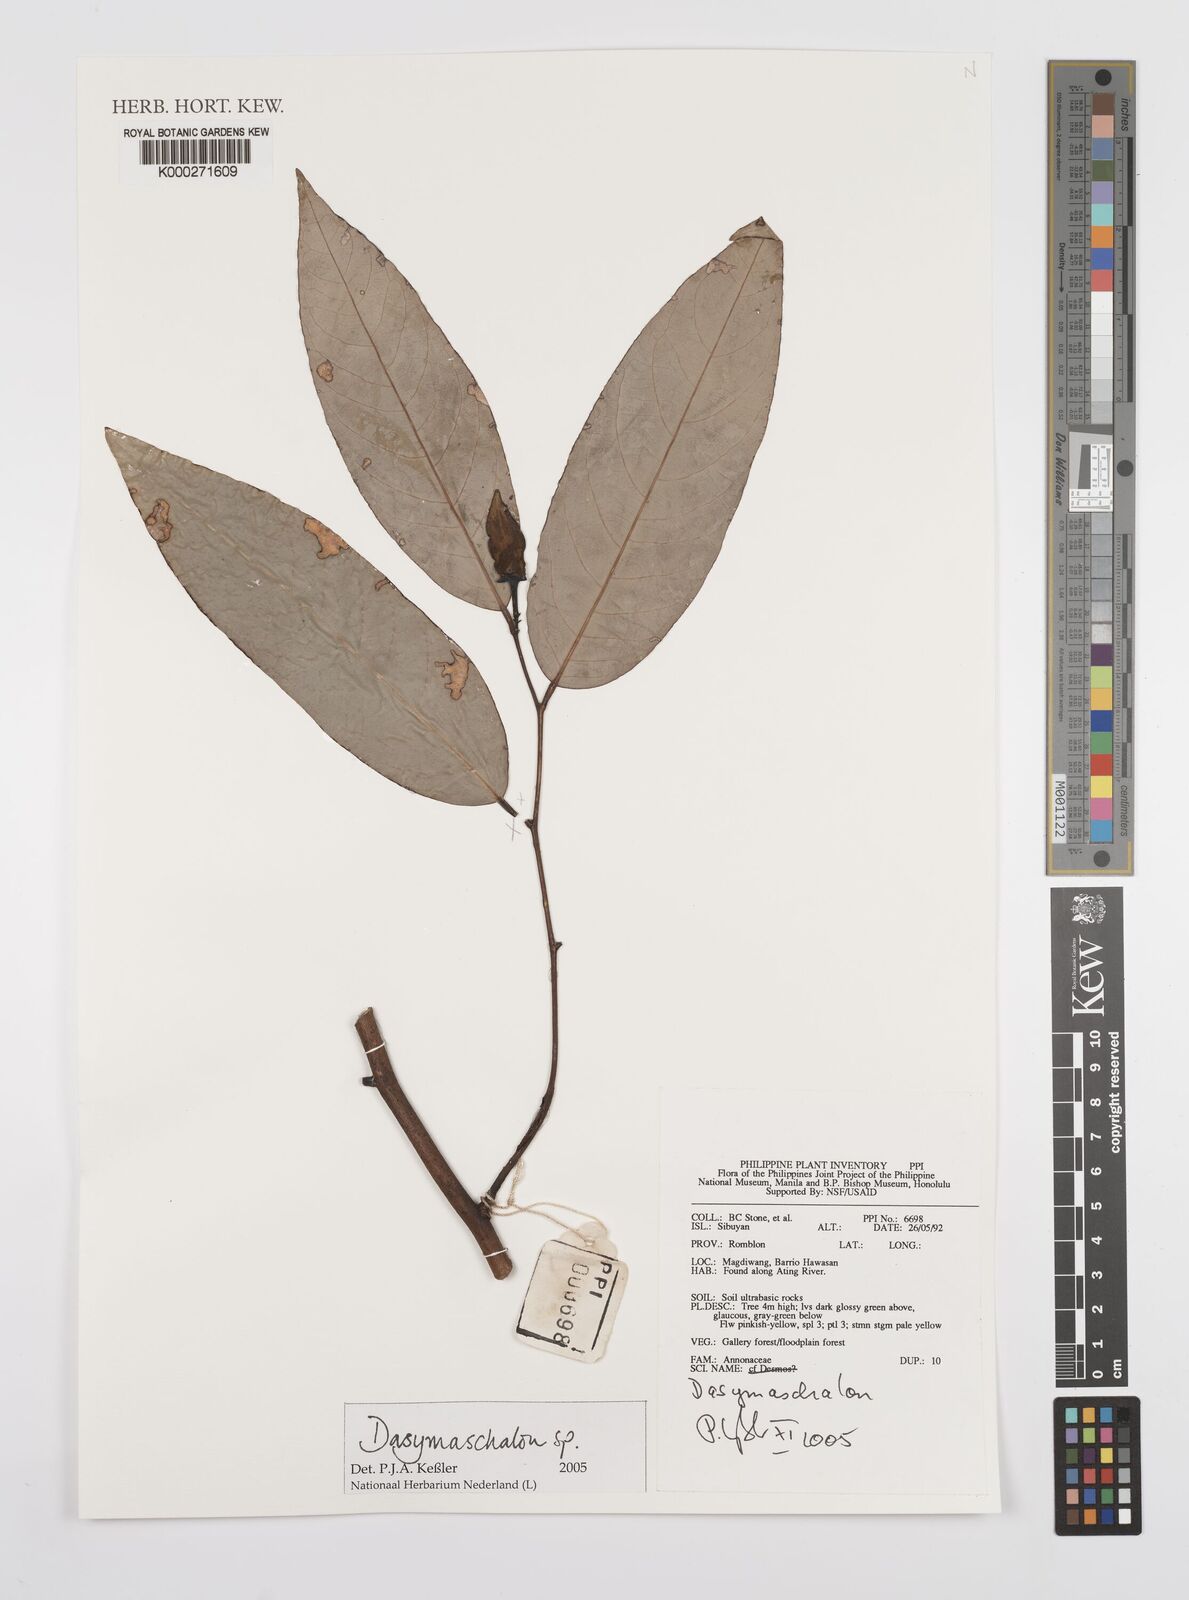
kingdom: Plantae
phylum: Tracheophyta
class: Magnoliopsida
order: Magnoliales
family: Annonaceae
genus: Dasymaschalon
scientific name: Dasymaschalon
